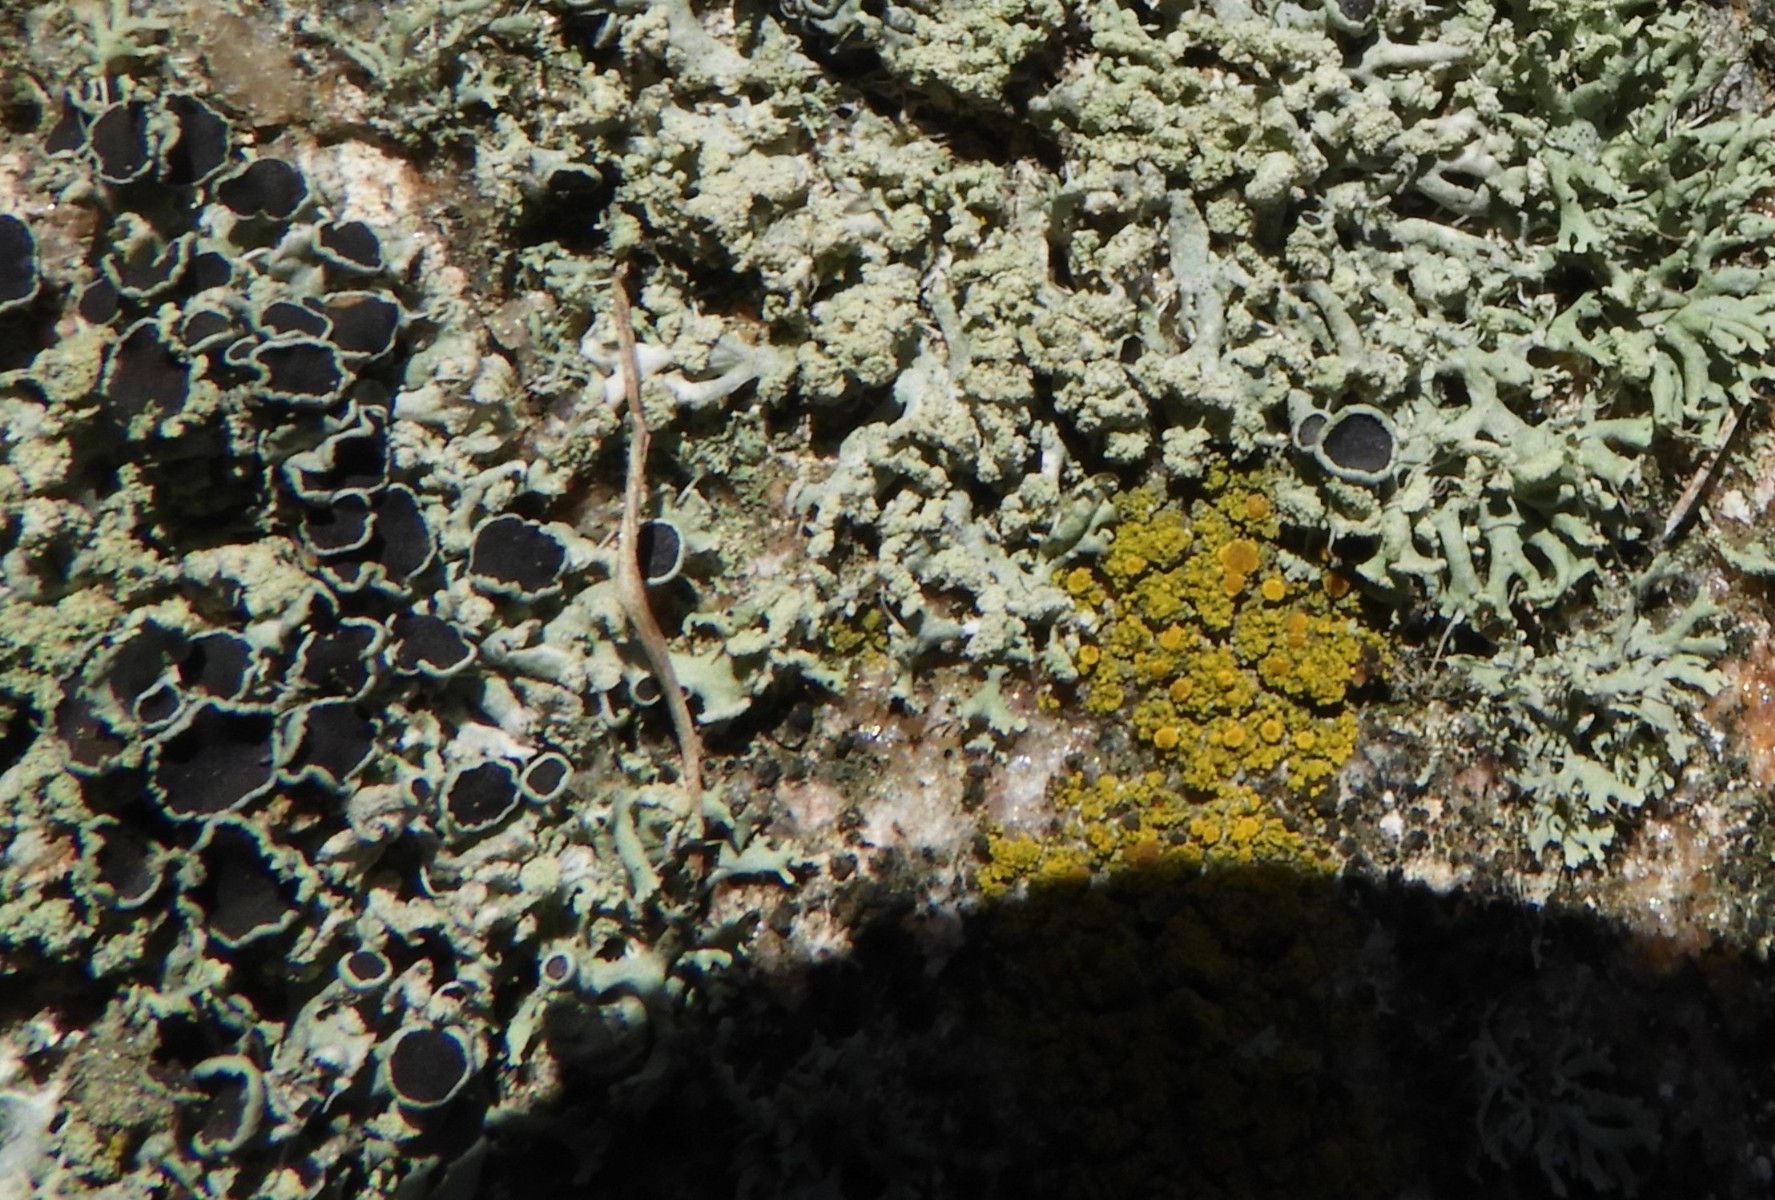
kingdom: Fungi
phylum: Ascomycota
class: Lecanoromycetes
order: Caliciales
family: Physciaceae
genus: Physcia
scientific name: Physcia tenella
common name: spæd rosetlav
